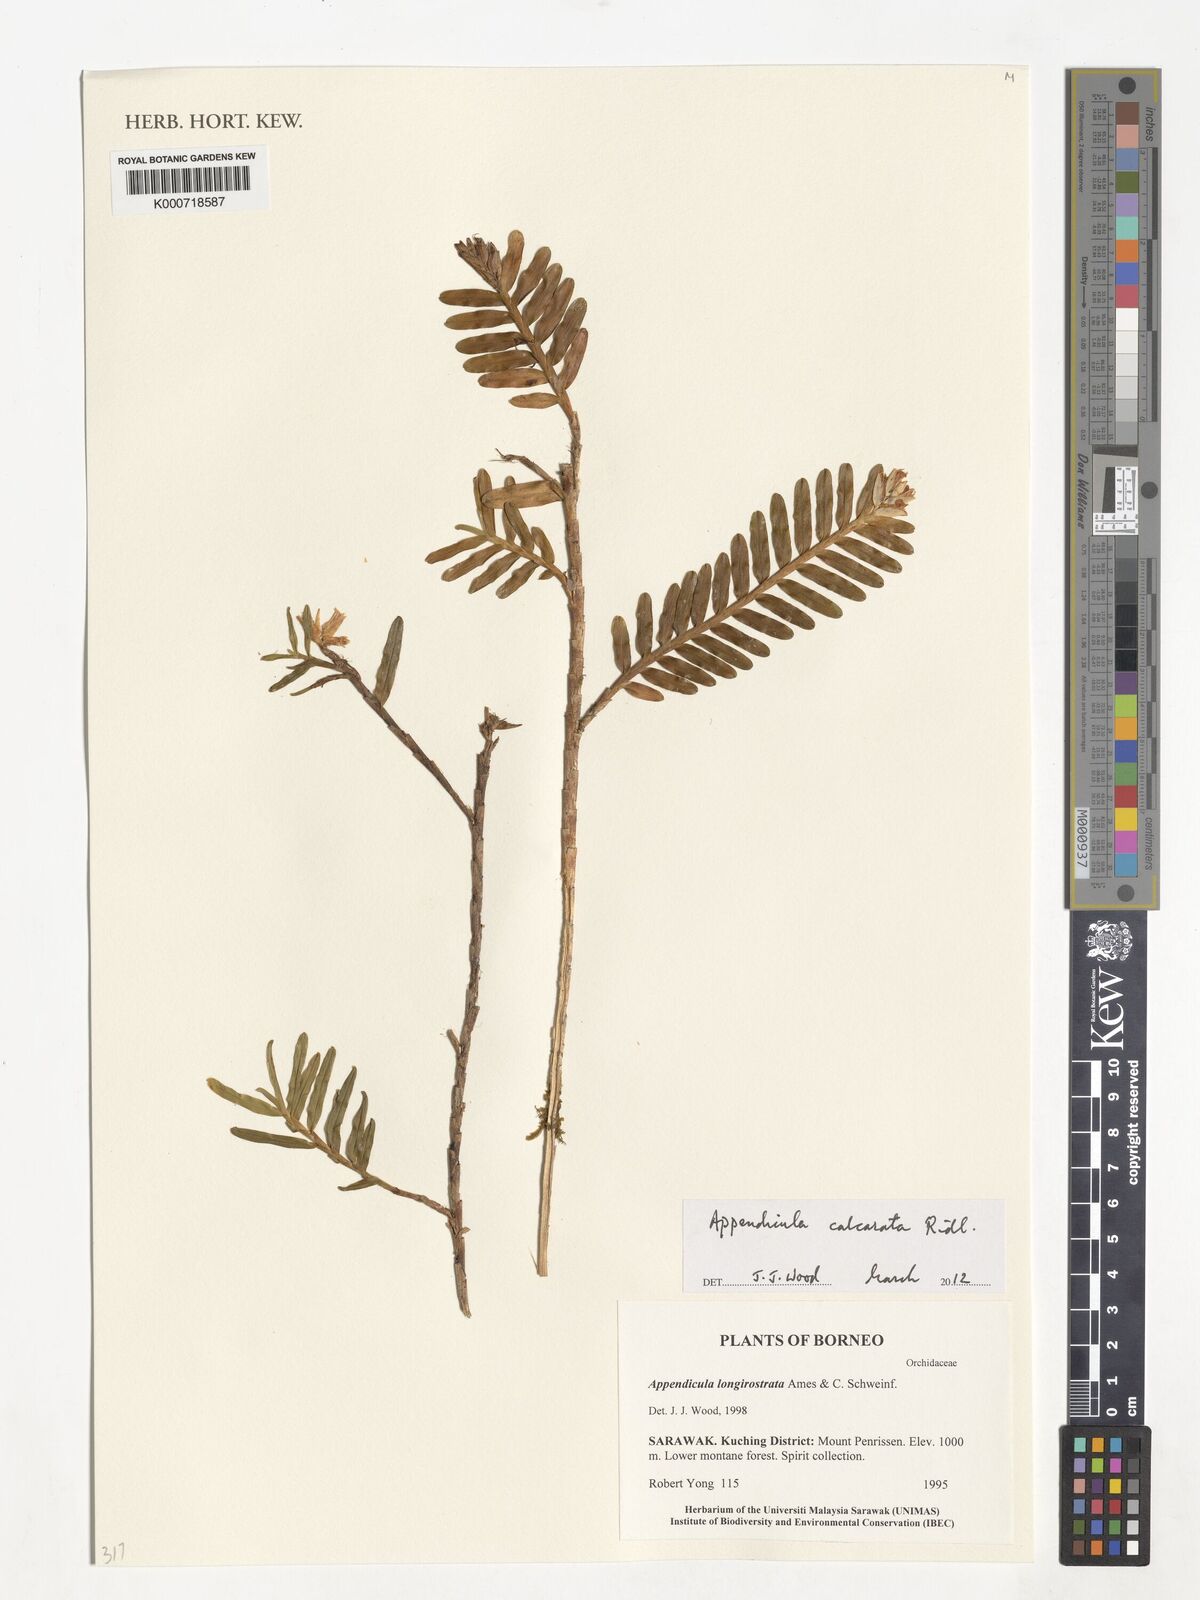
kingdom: Plantae
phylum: Tracheophyta
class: Liliopsida
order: Asparagales
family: Orchidaceae
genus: Appendicula
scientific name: Appendicula calcarata
